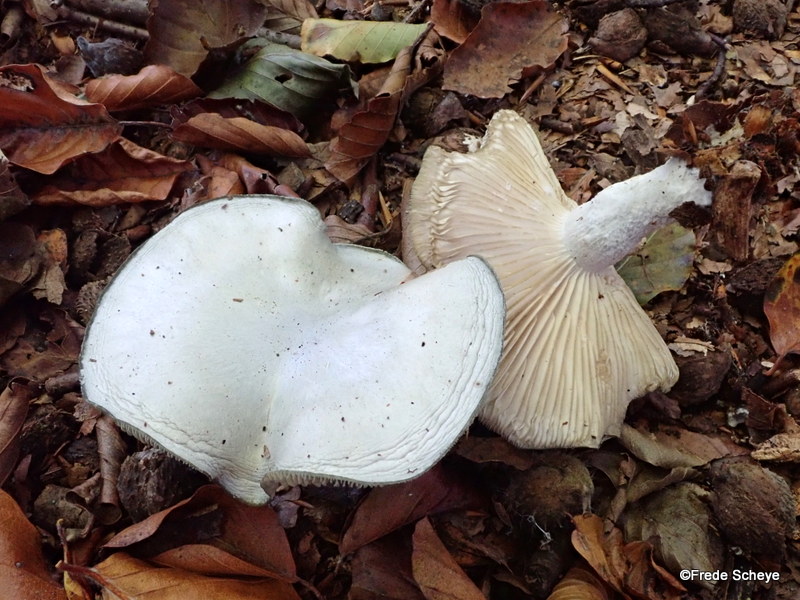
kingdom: Fungi
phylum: Basidiomycota
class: Agaricomycetes
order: Agaricales
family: Tricholomataceae
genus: Clitocybe
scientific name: Clitocybe odora
